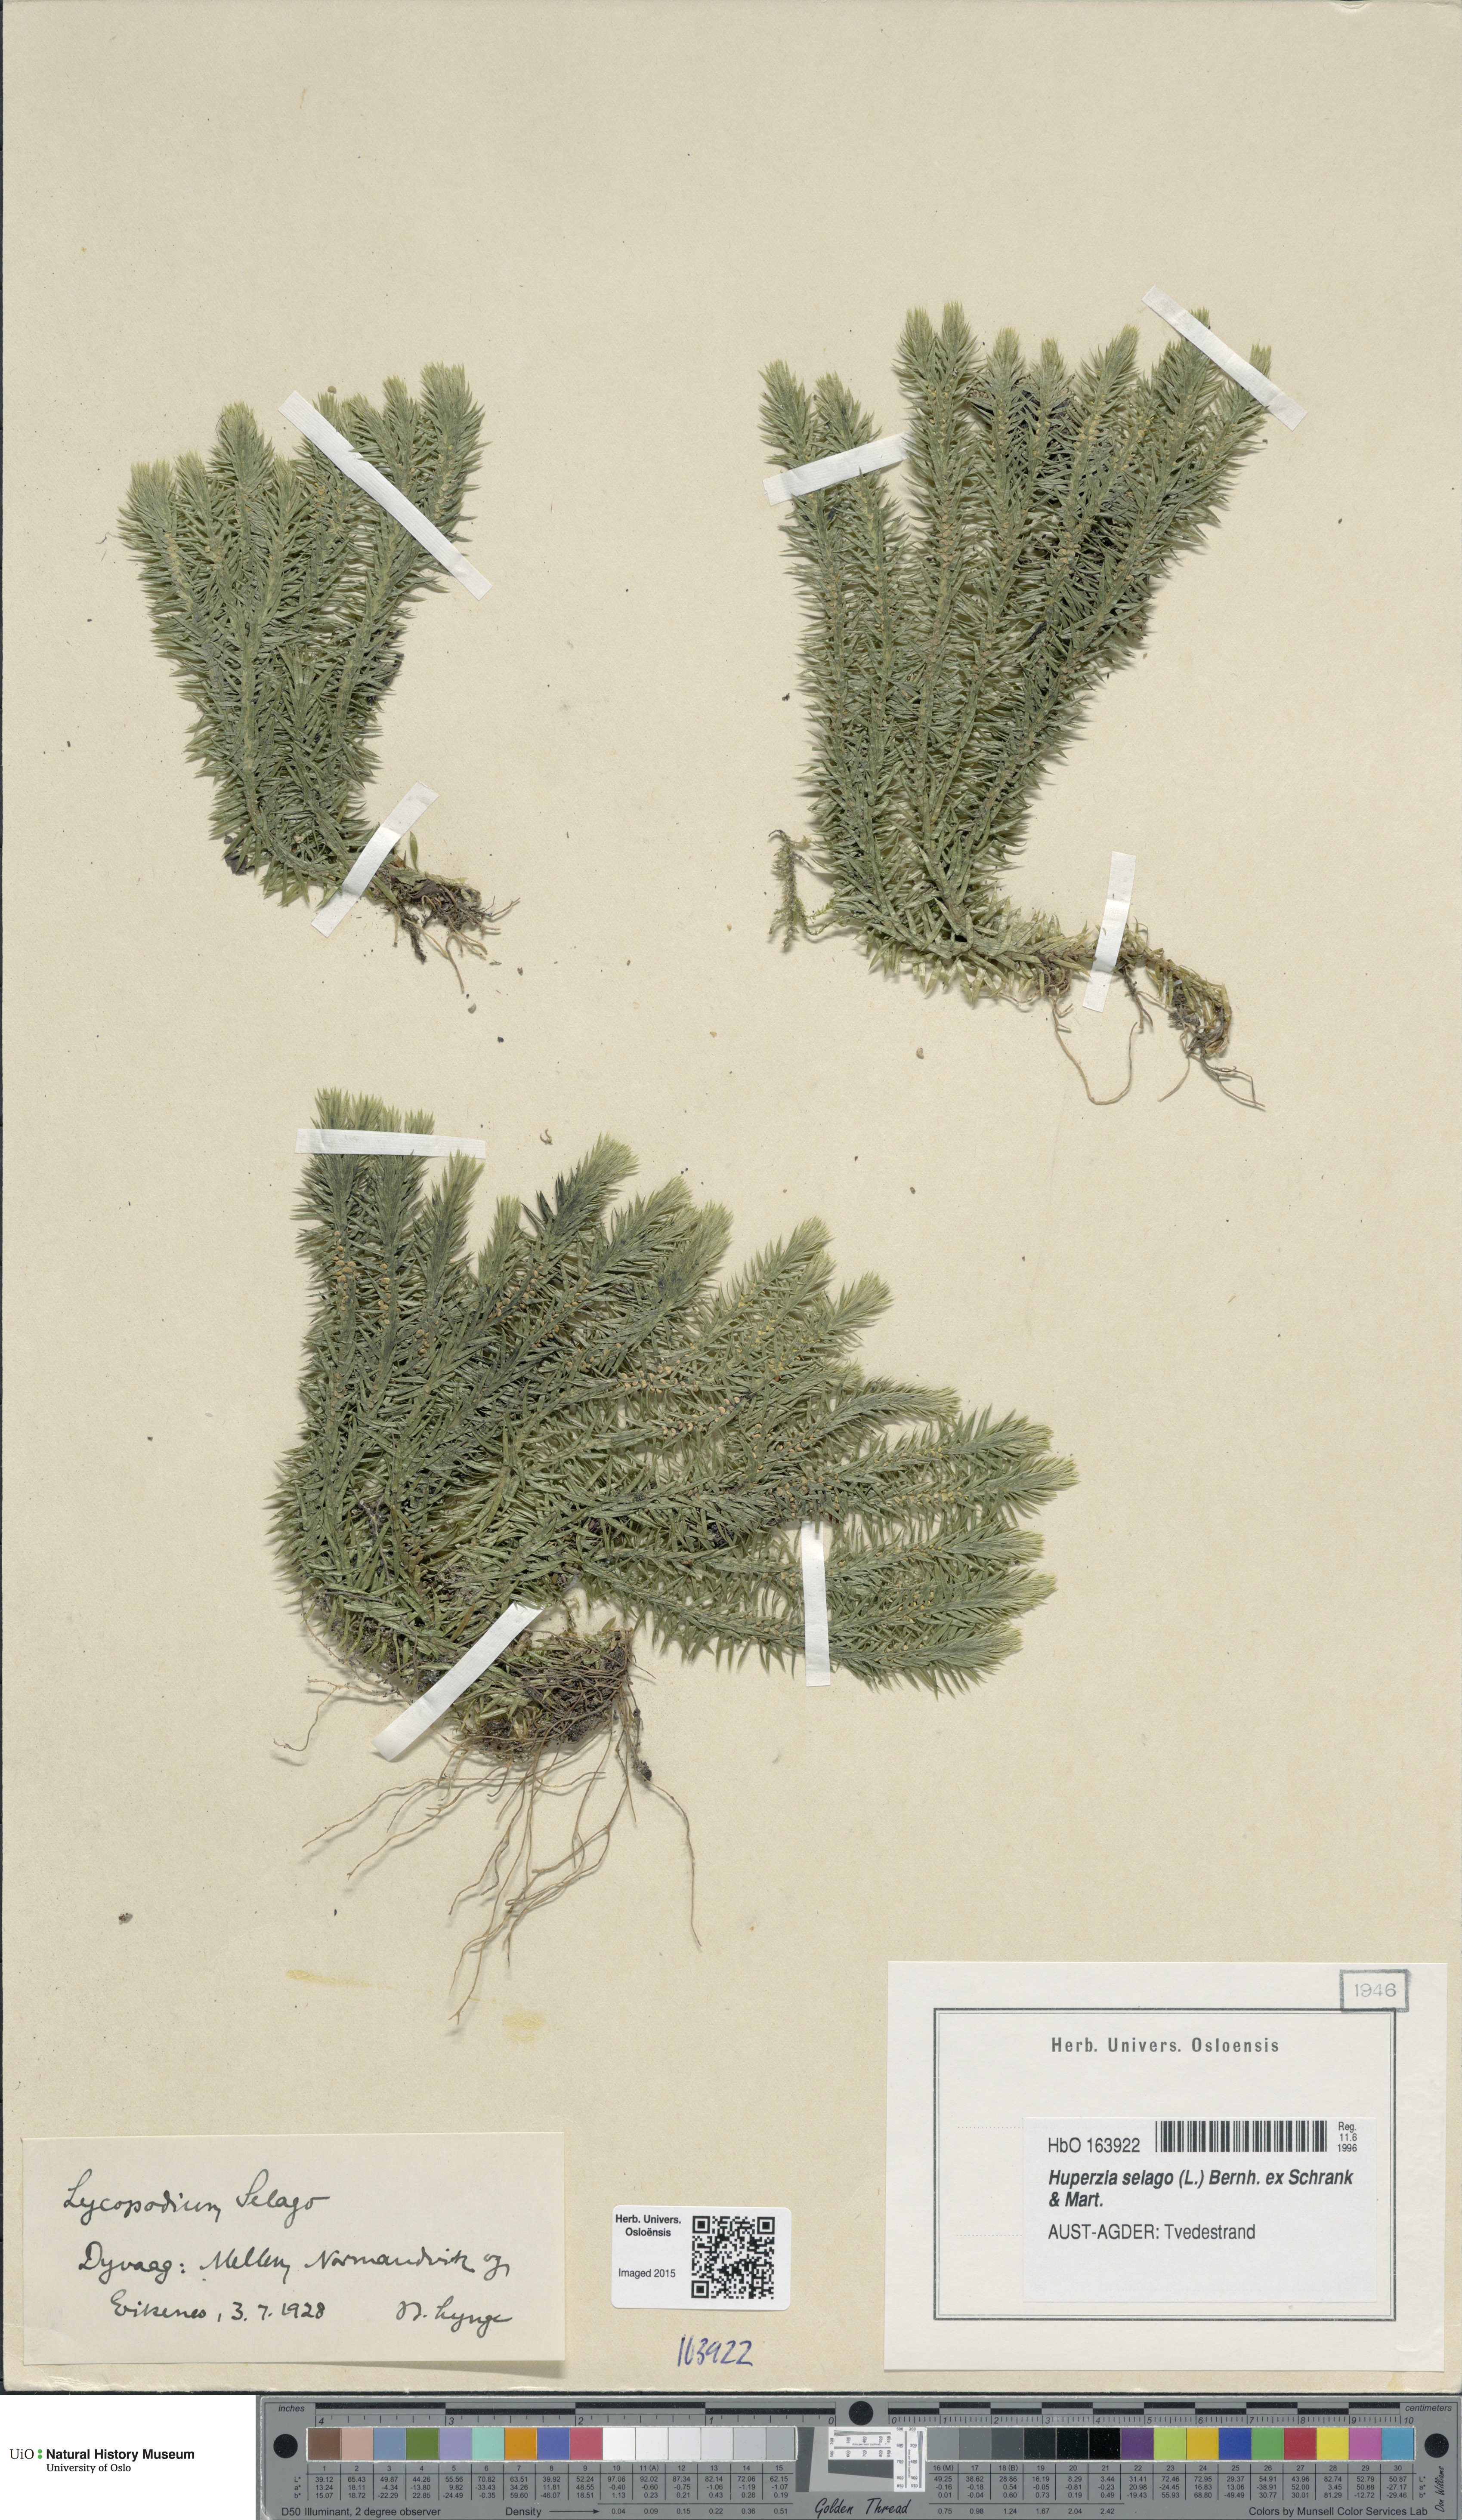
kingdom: Plantae
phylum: Tracheophyta
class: Lycopodiopsida
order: Lycopodiales
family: Lycopodiaceae
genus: Huperzia
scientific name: Huperzia selago
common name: Northern firmoss
